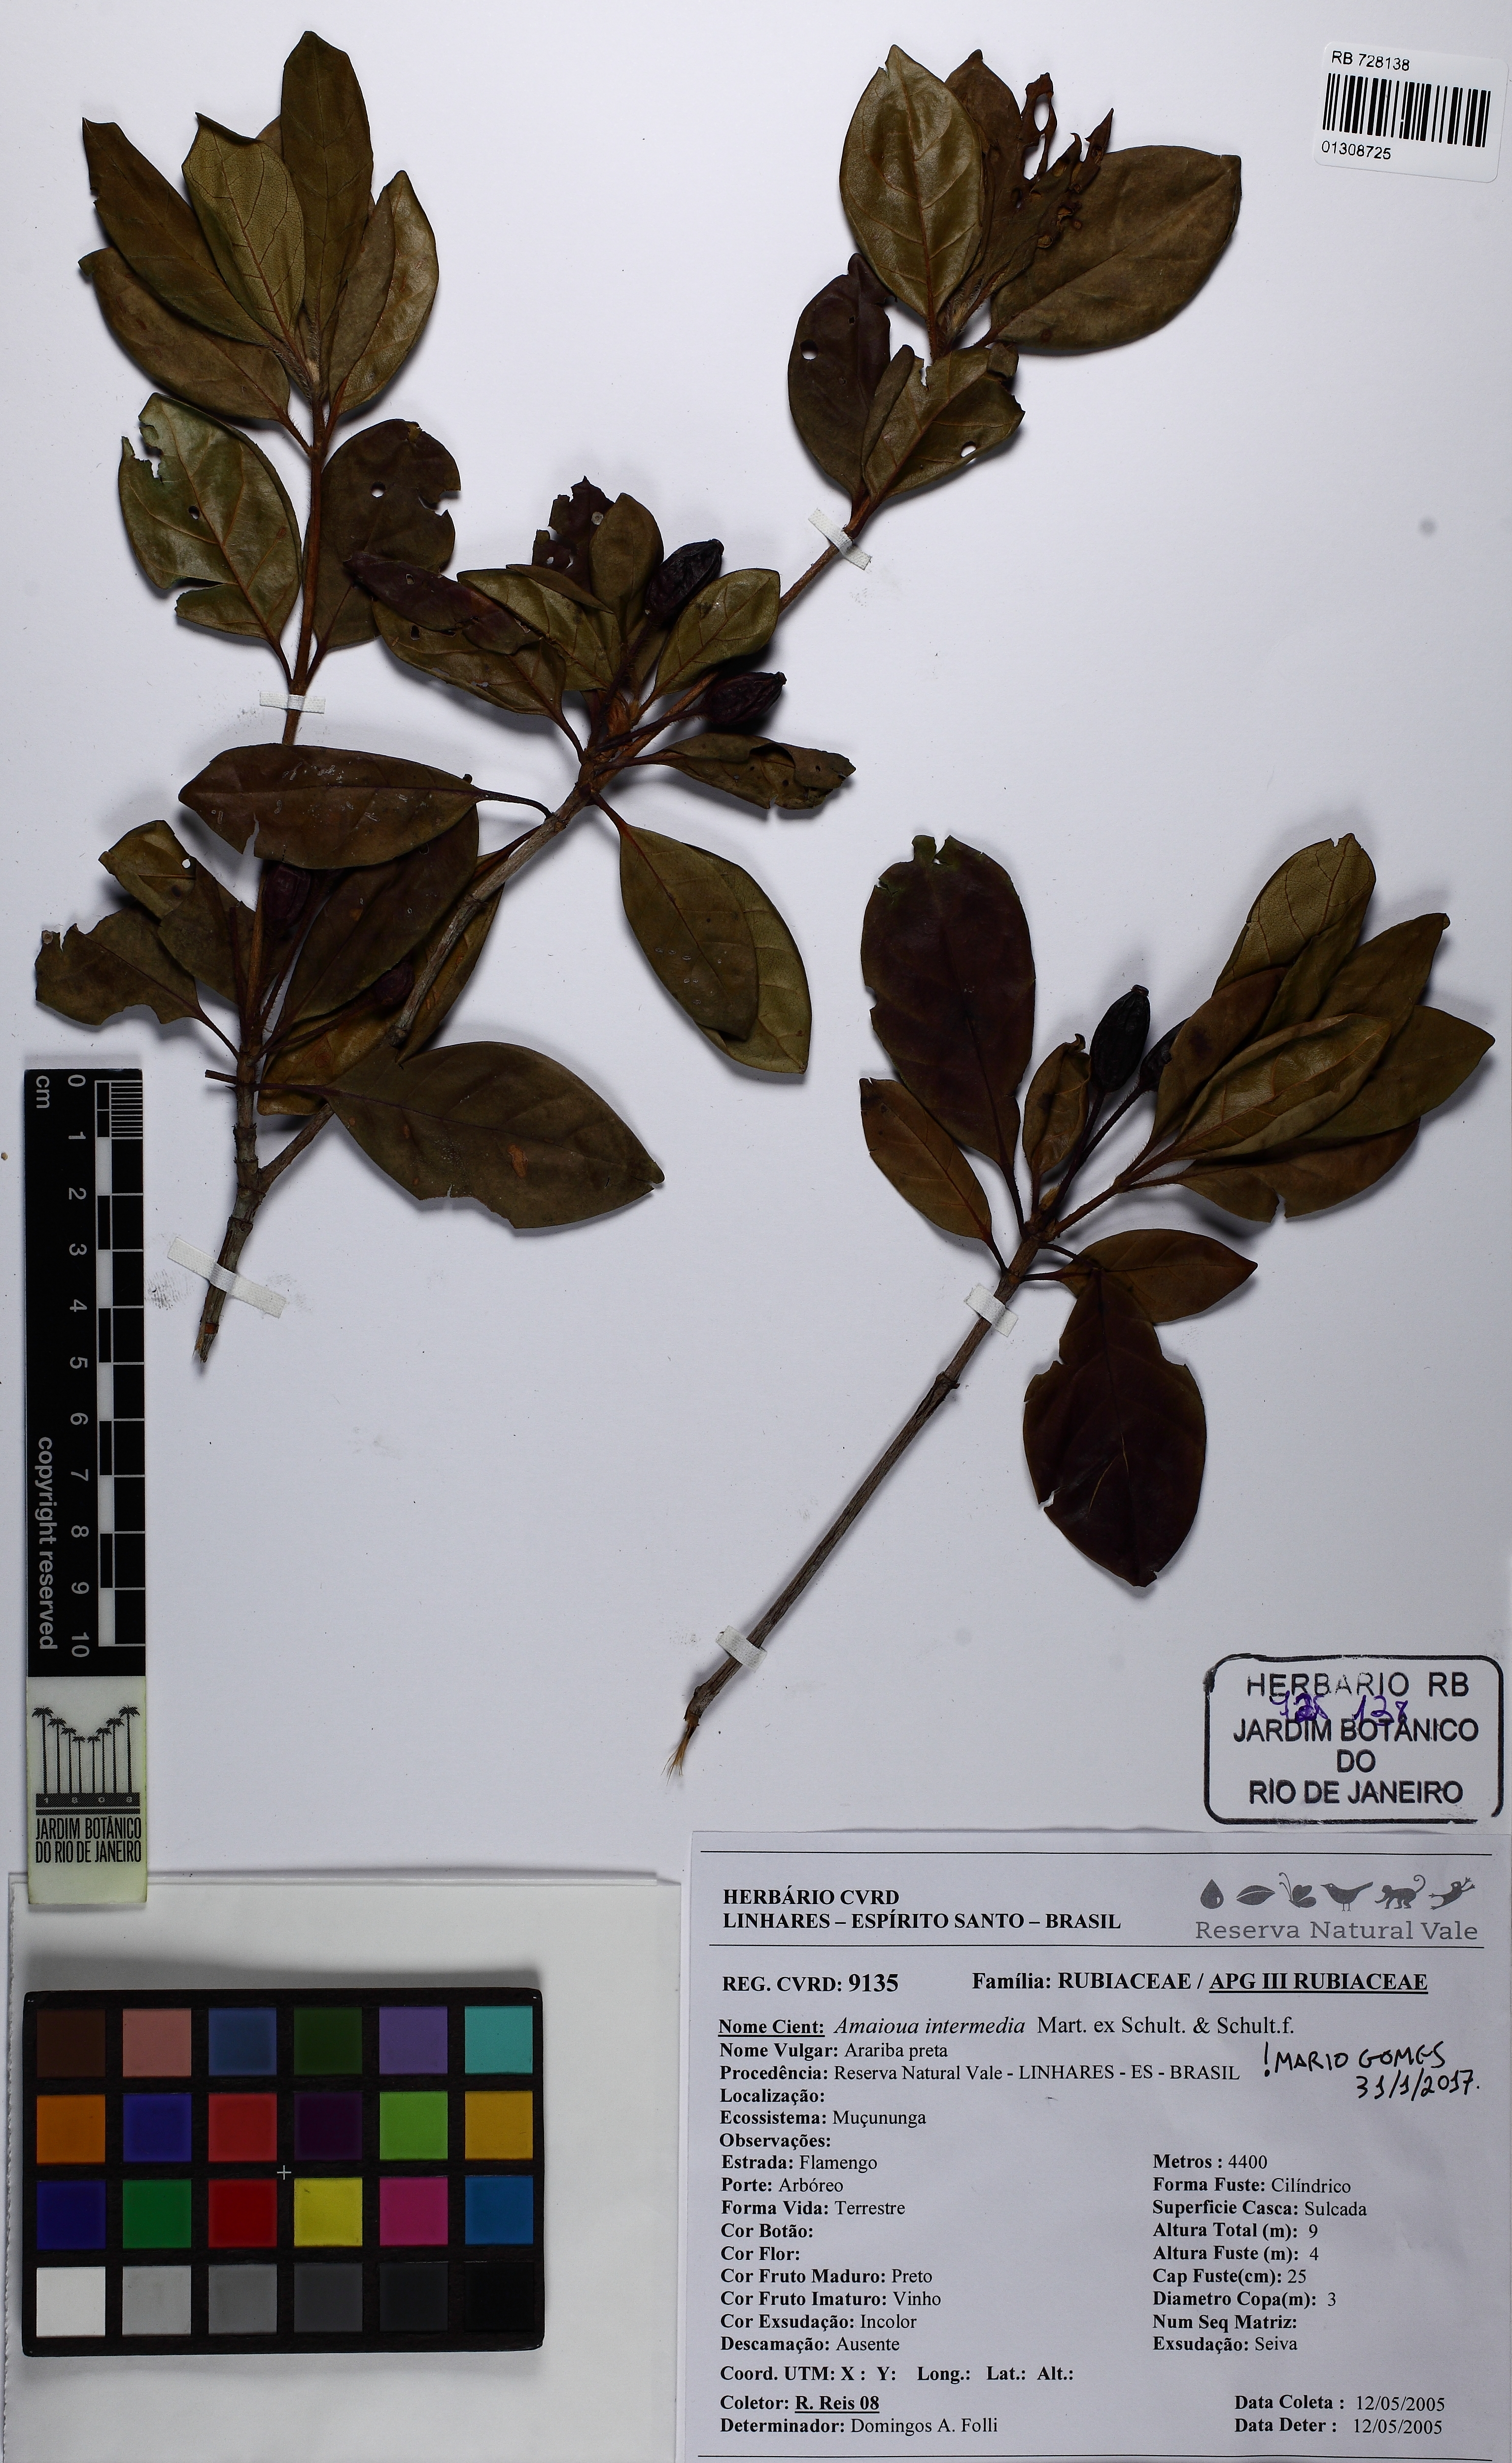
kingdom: Plantae
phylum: Tracheophyta
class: Magnoliopsida
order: Gentianales
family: Rubiaceae
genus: Amaioua
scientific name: Amaioua intermedia
